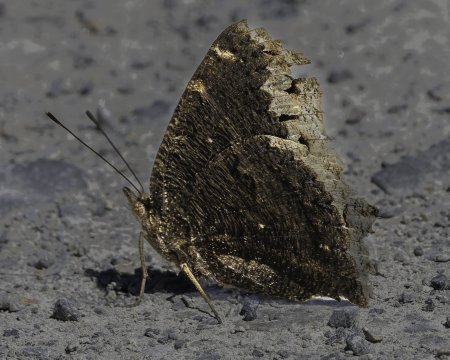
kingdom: Animalia
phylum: Arthropoda
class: Insecta
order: Lepidoptera
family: Nymphalidae
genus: Nymphalis
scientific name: Nymphalis antiopa
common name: Mourning Cloak
